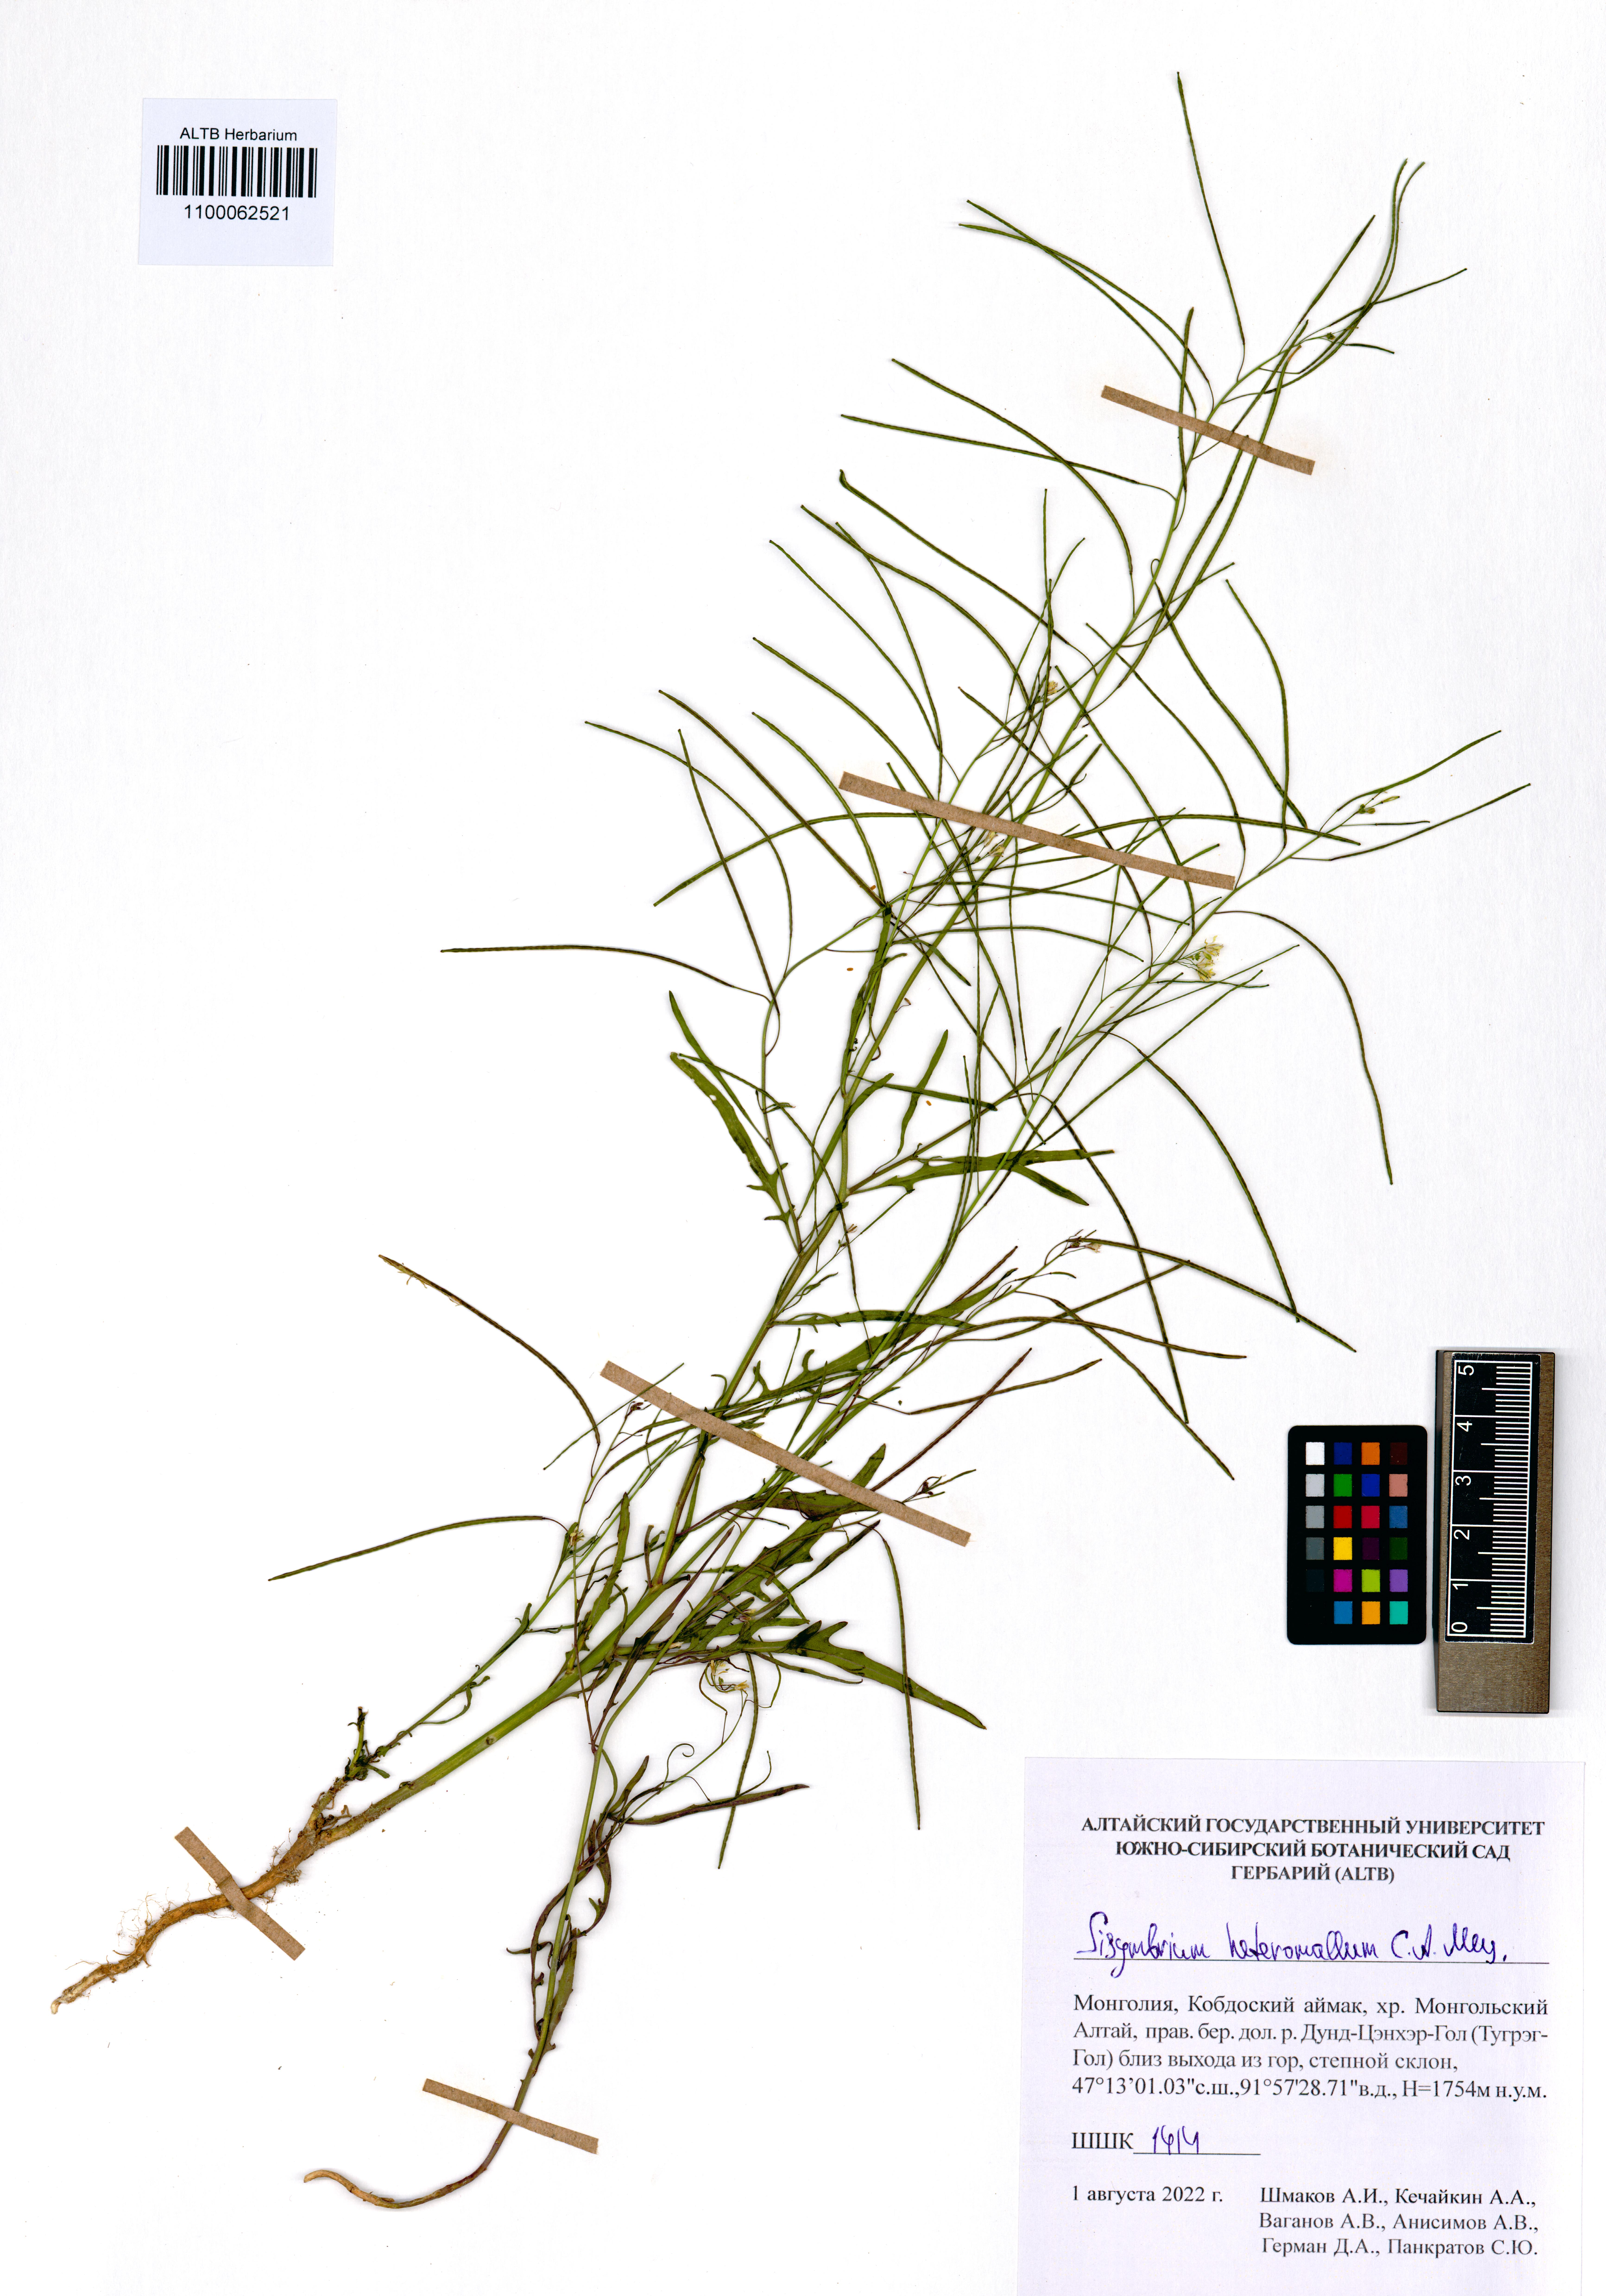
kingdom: Plantae
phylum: Tracheophyta
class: Magnoliopsida
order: Brassicales
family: Brassicaceae
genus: Sisymbrium
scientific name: Sisymbrium heteromallum
